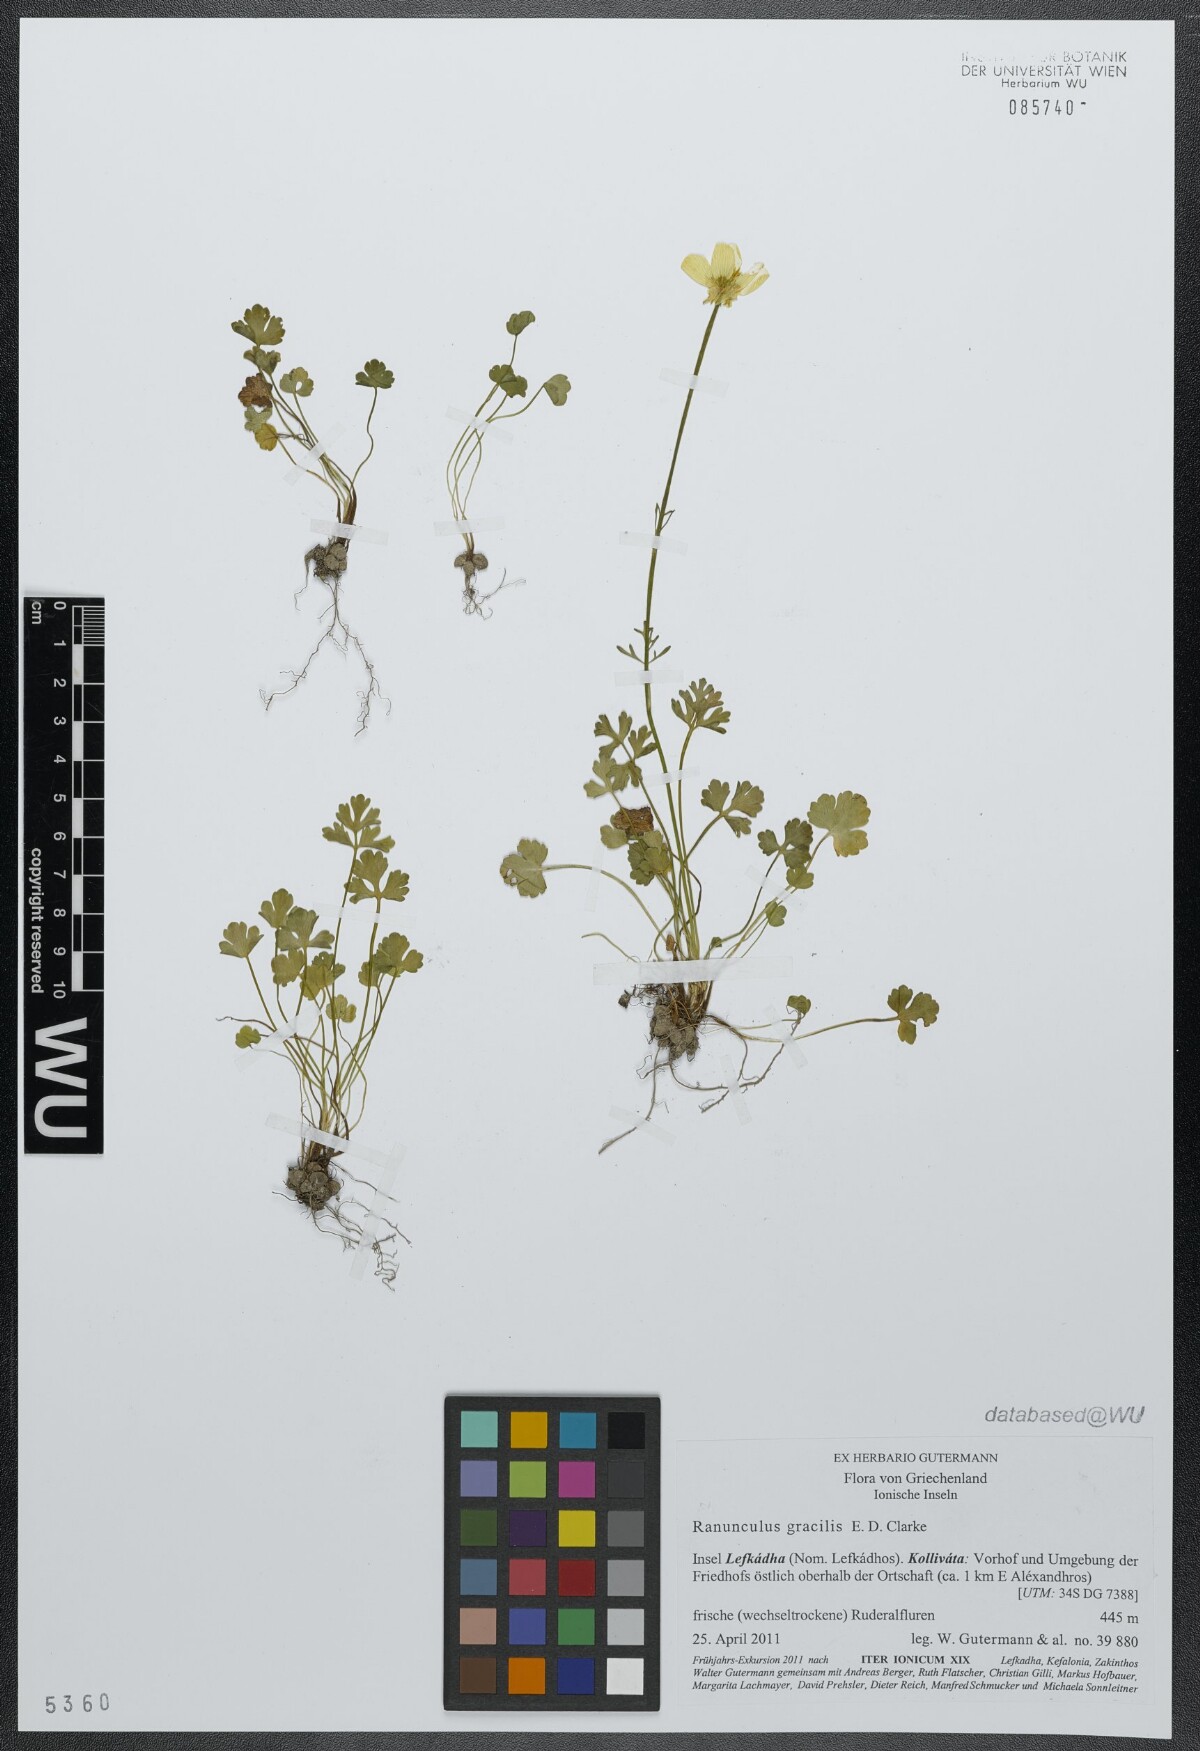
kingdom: Plantae
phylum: Tracheophyta
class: Magnoliopsida
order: Ranunculales
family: Ranunculaceae
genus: Ranunculus
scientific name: Ranunculus gracilis
